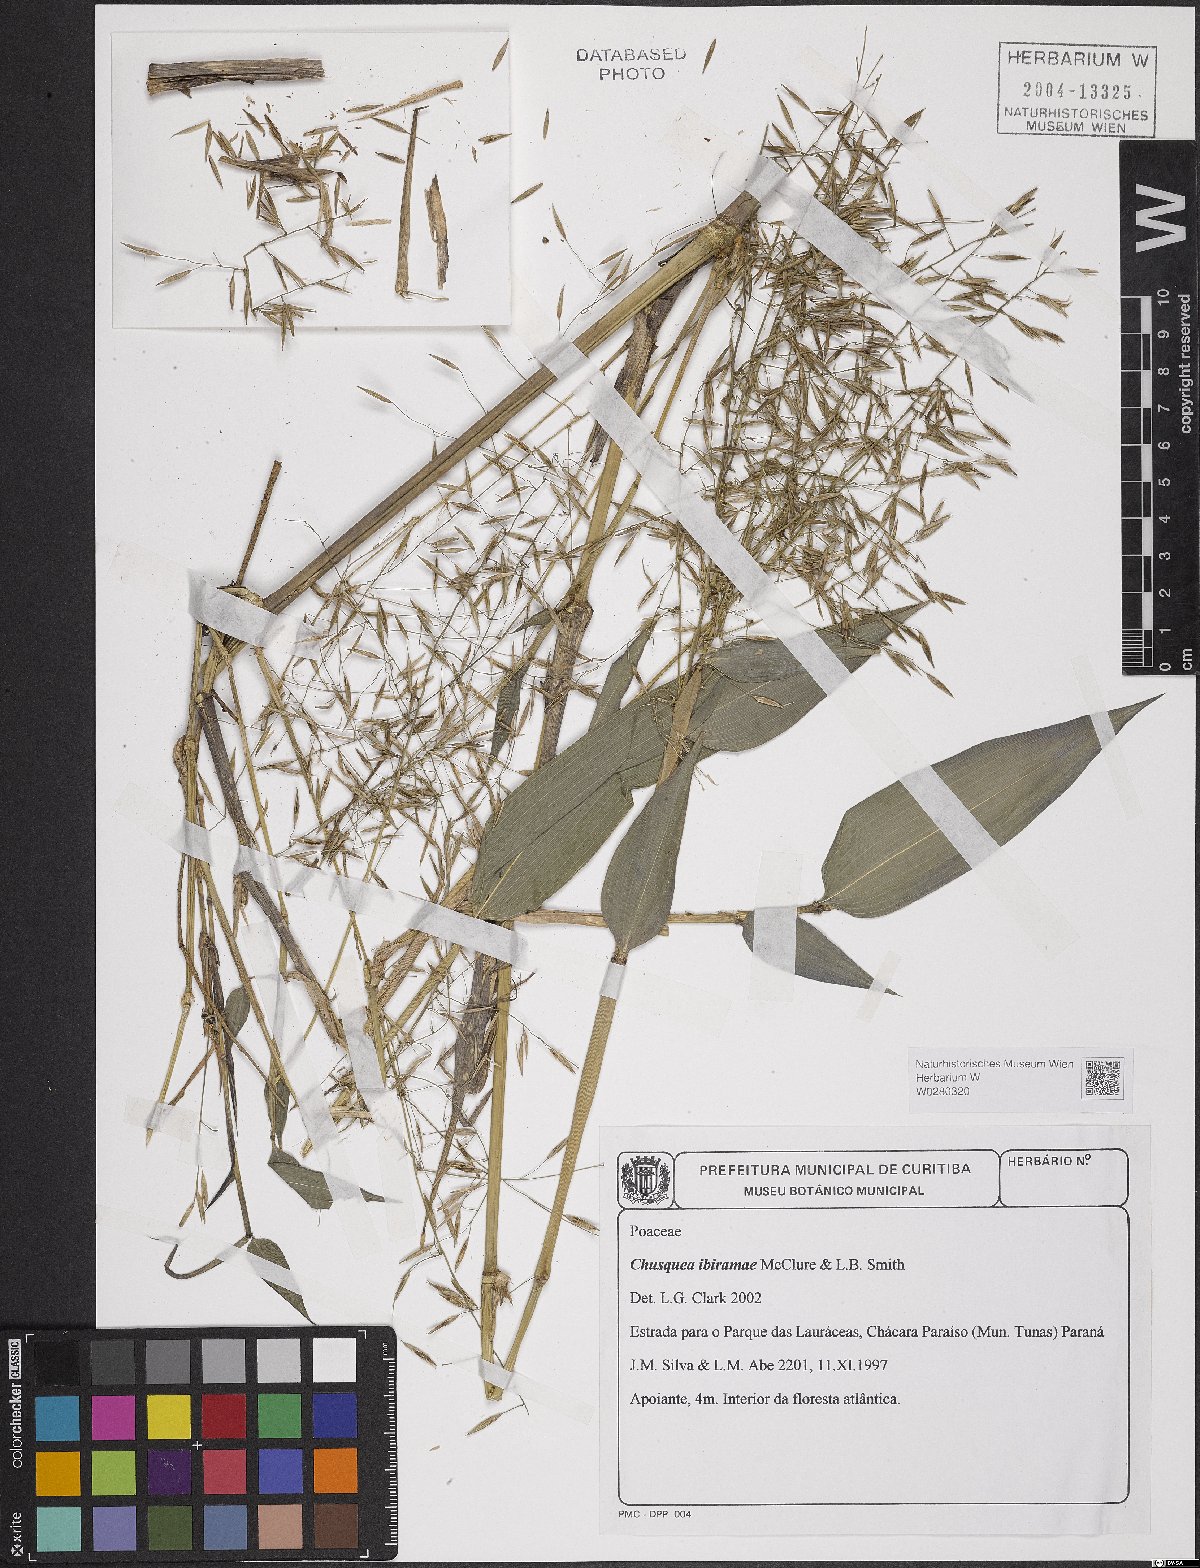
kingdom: Plantae
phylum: Tracheophyta
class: Liliopsida
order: Poales
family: Poaceae
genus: Chusquea
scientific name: Chusquea ibiramae
